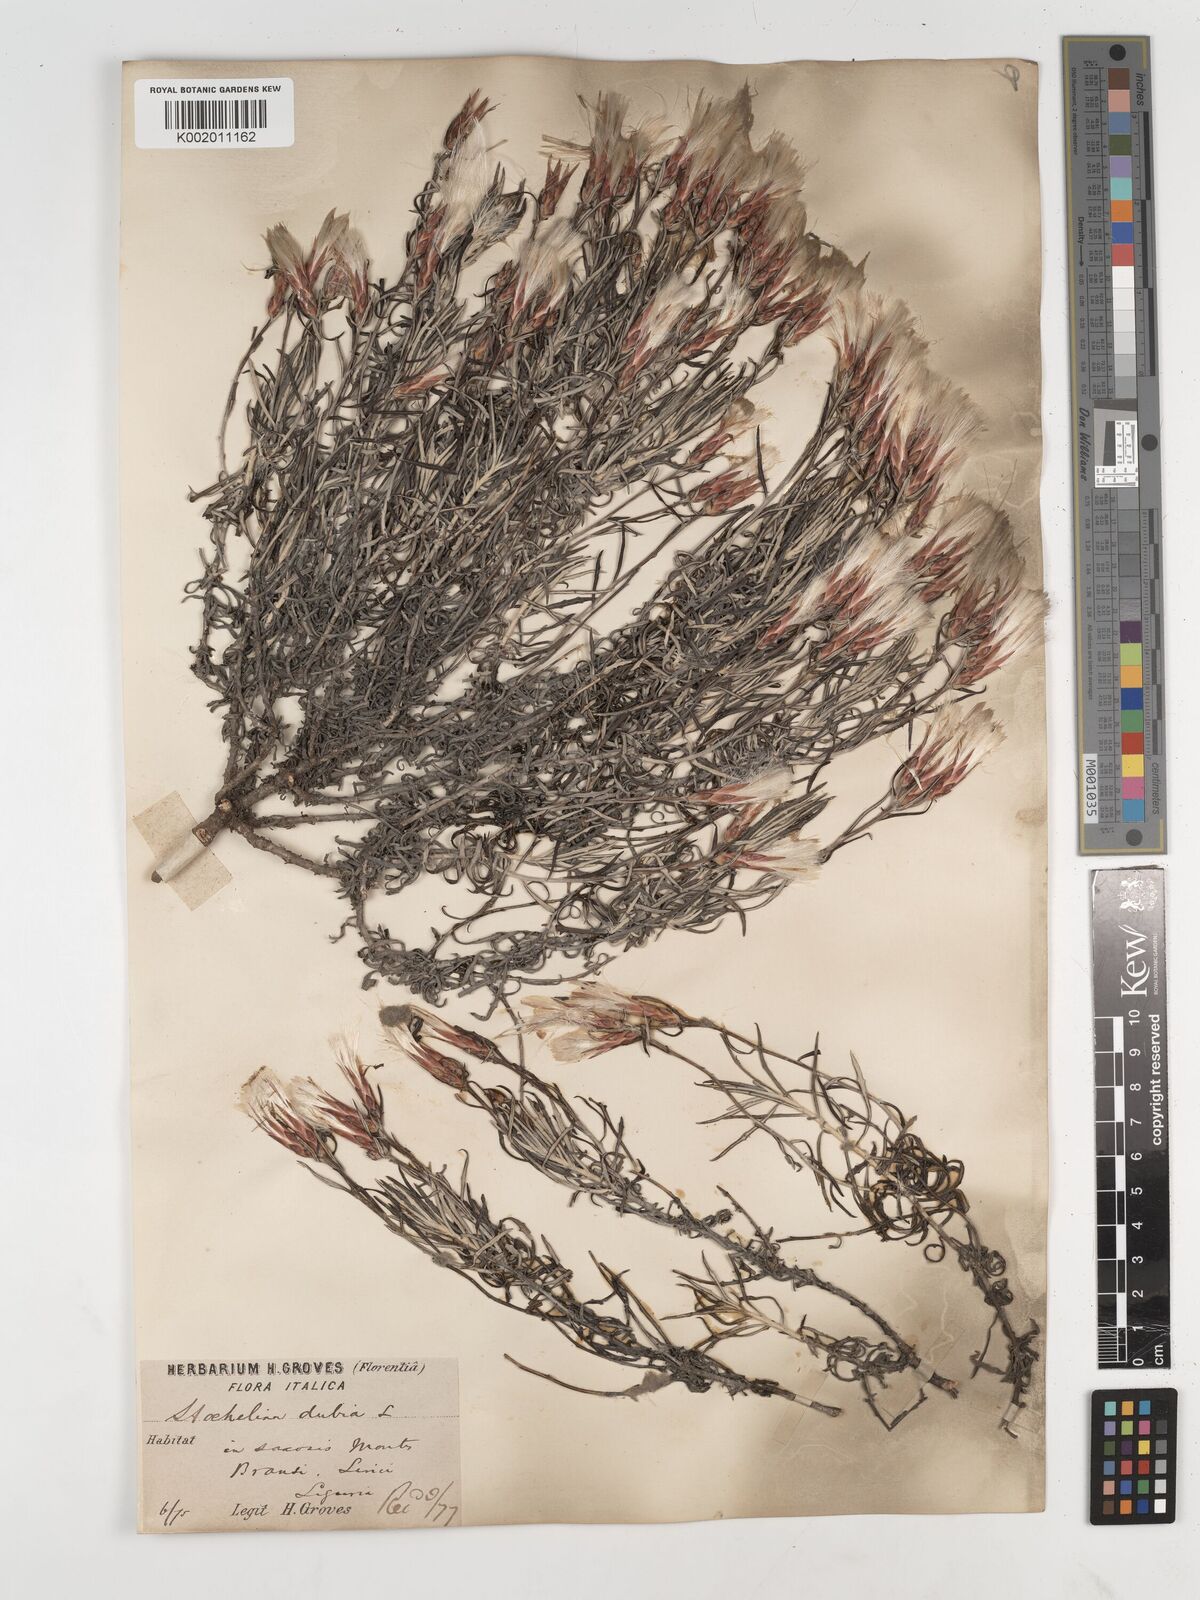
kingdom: Plantae
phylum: Tracheophyta
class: Magnoliopsida
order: Asterales
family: Asteraceae
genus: Staehelina
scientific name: Staehelina dubia
